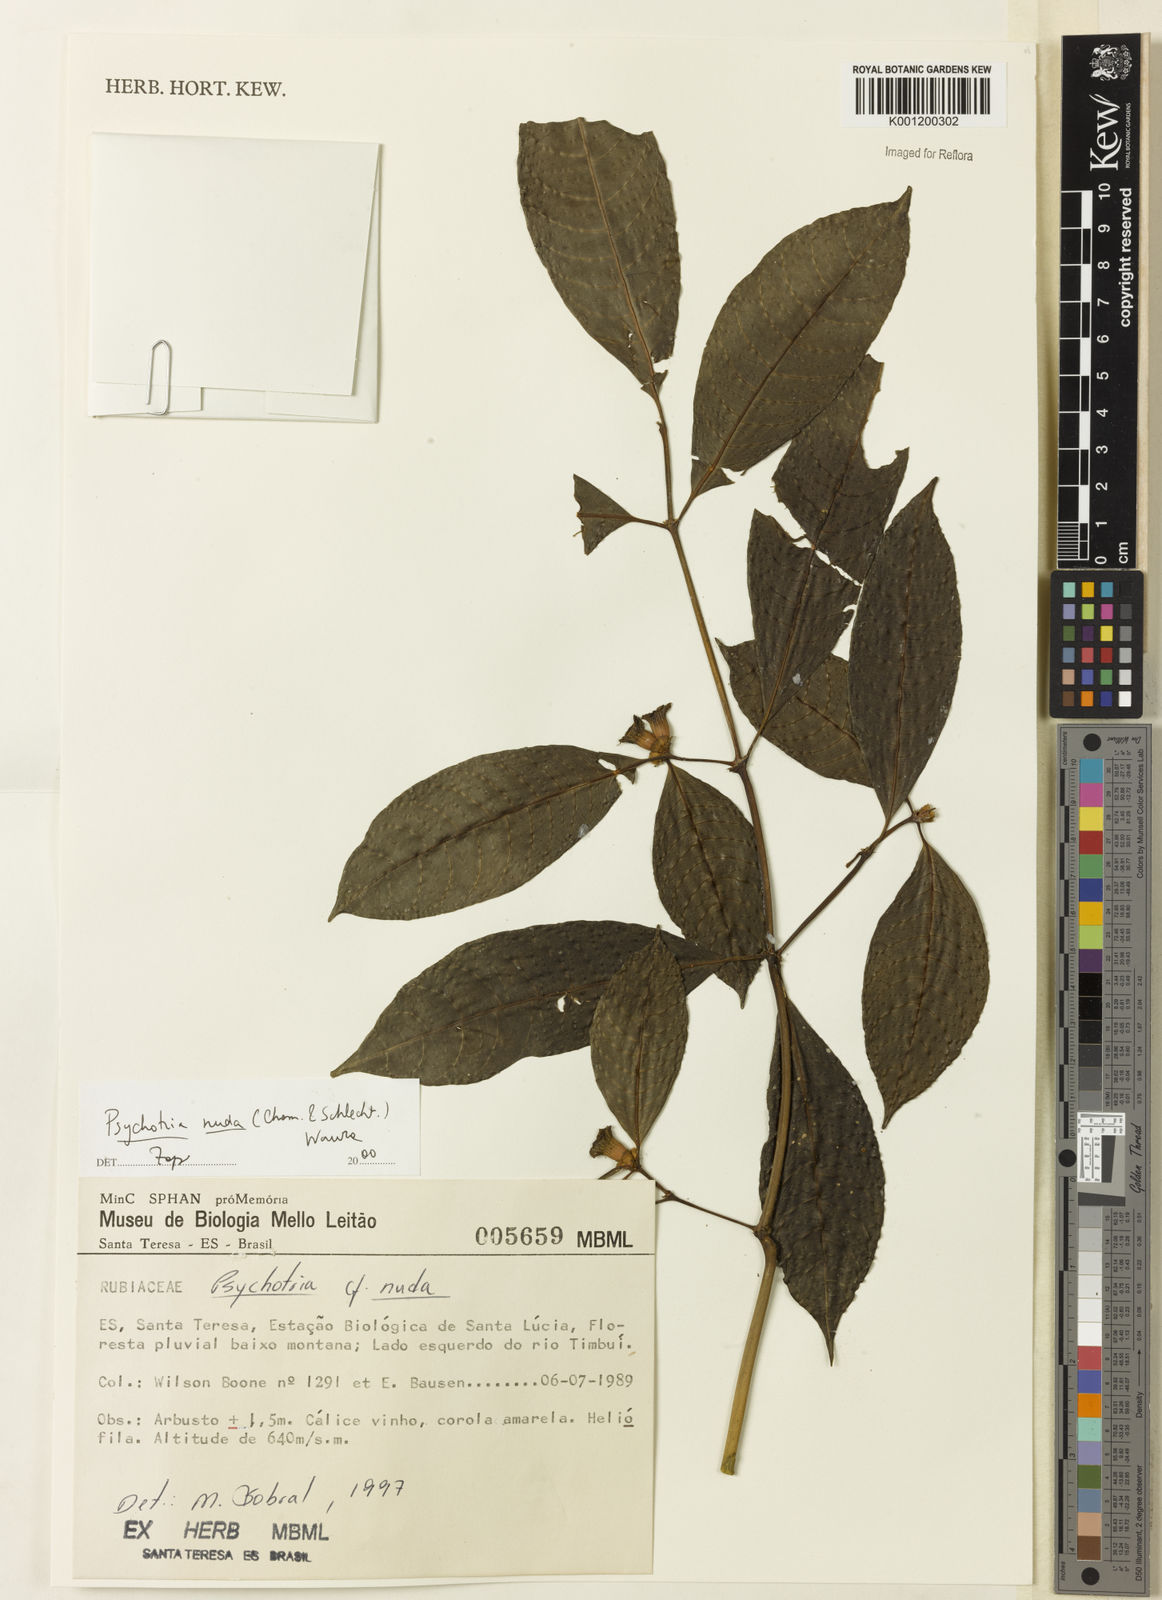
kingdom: Plantae
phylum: Tracheophyta
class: Magnoliopsida
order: Gentianales
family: Rubiaceae
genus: Psychotria
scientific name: Psychotria nuda
